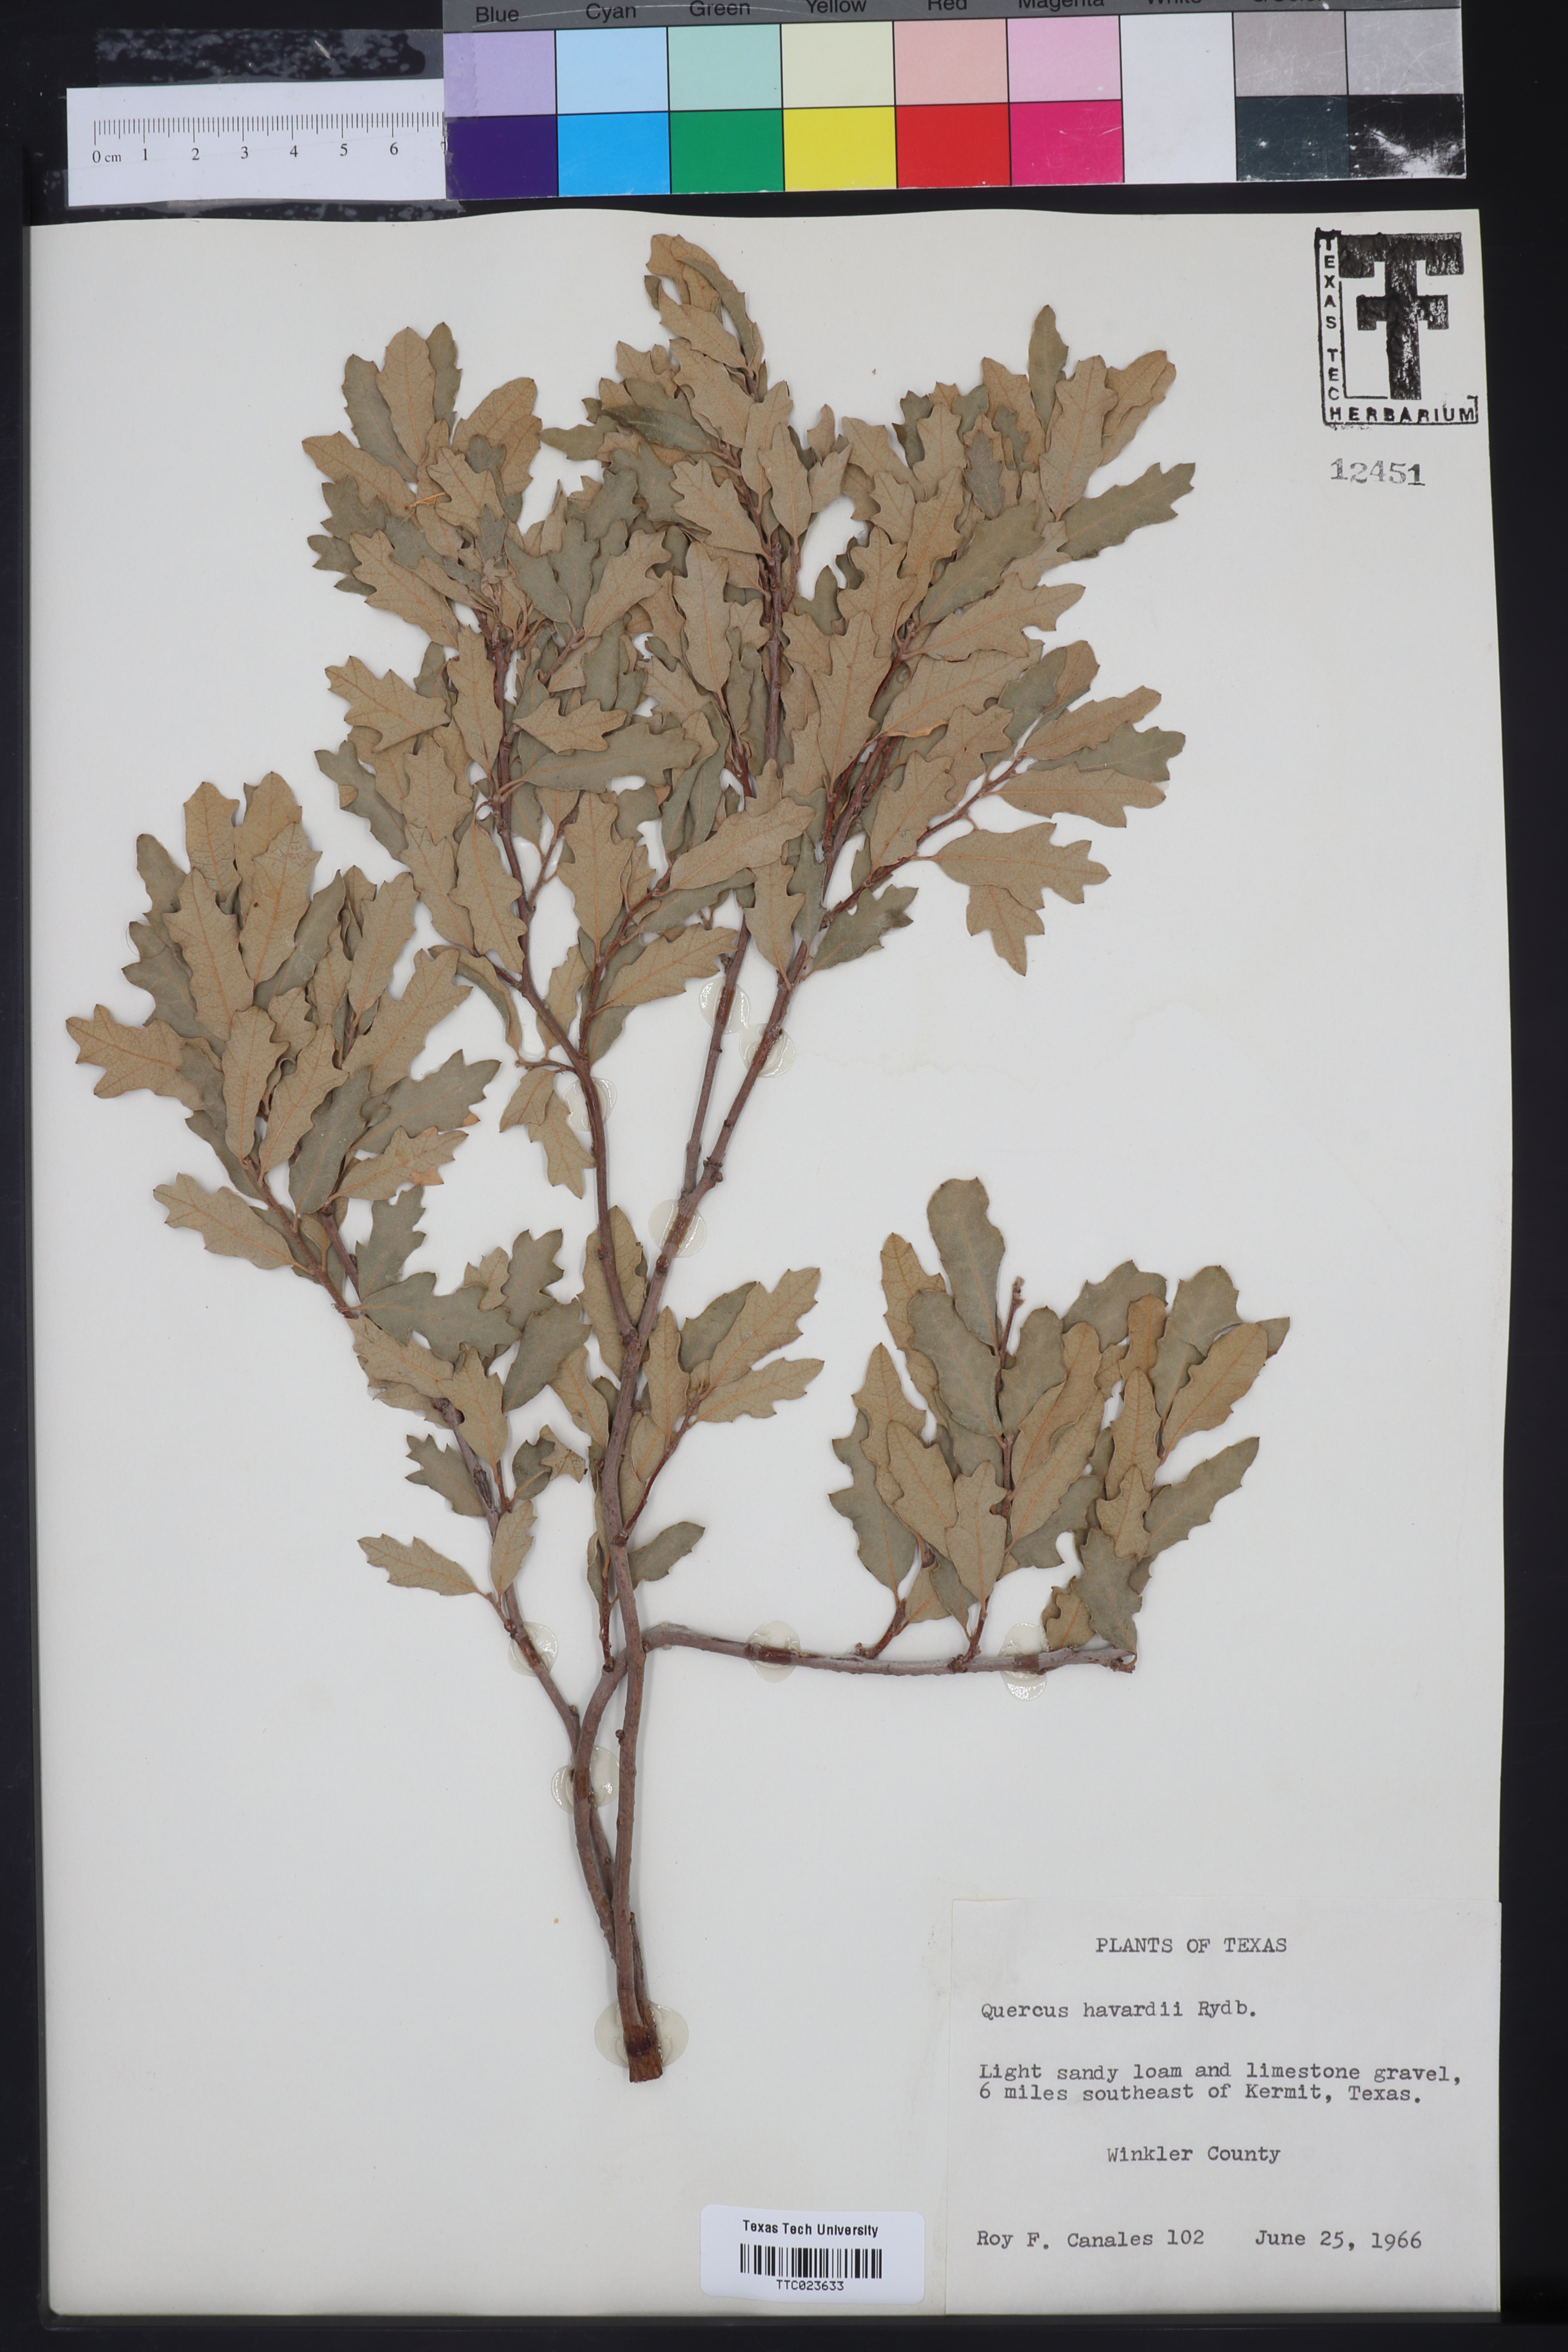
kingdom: Plantae
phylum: Tracheophyta
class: Magnoliopsida
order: Fagales
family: Fagaceae
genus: Quercus
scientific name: Quercus havardii
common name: Shinnery oak
